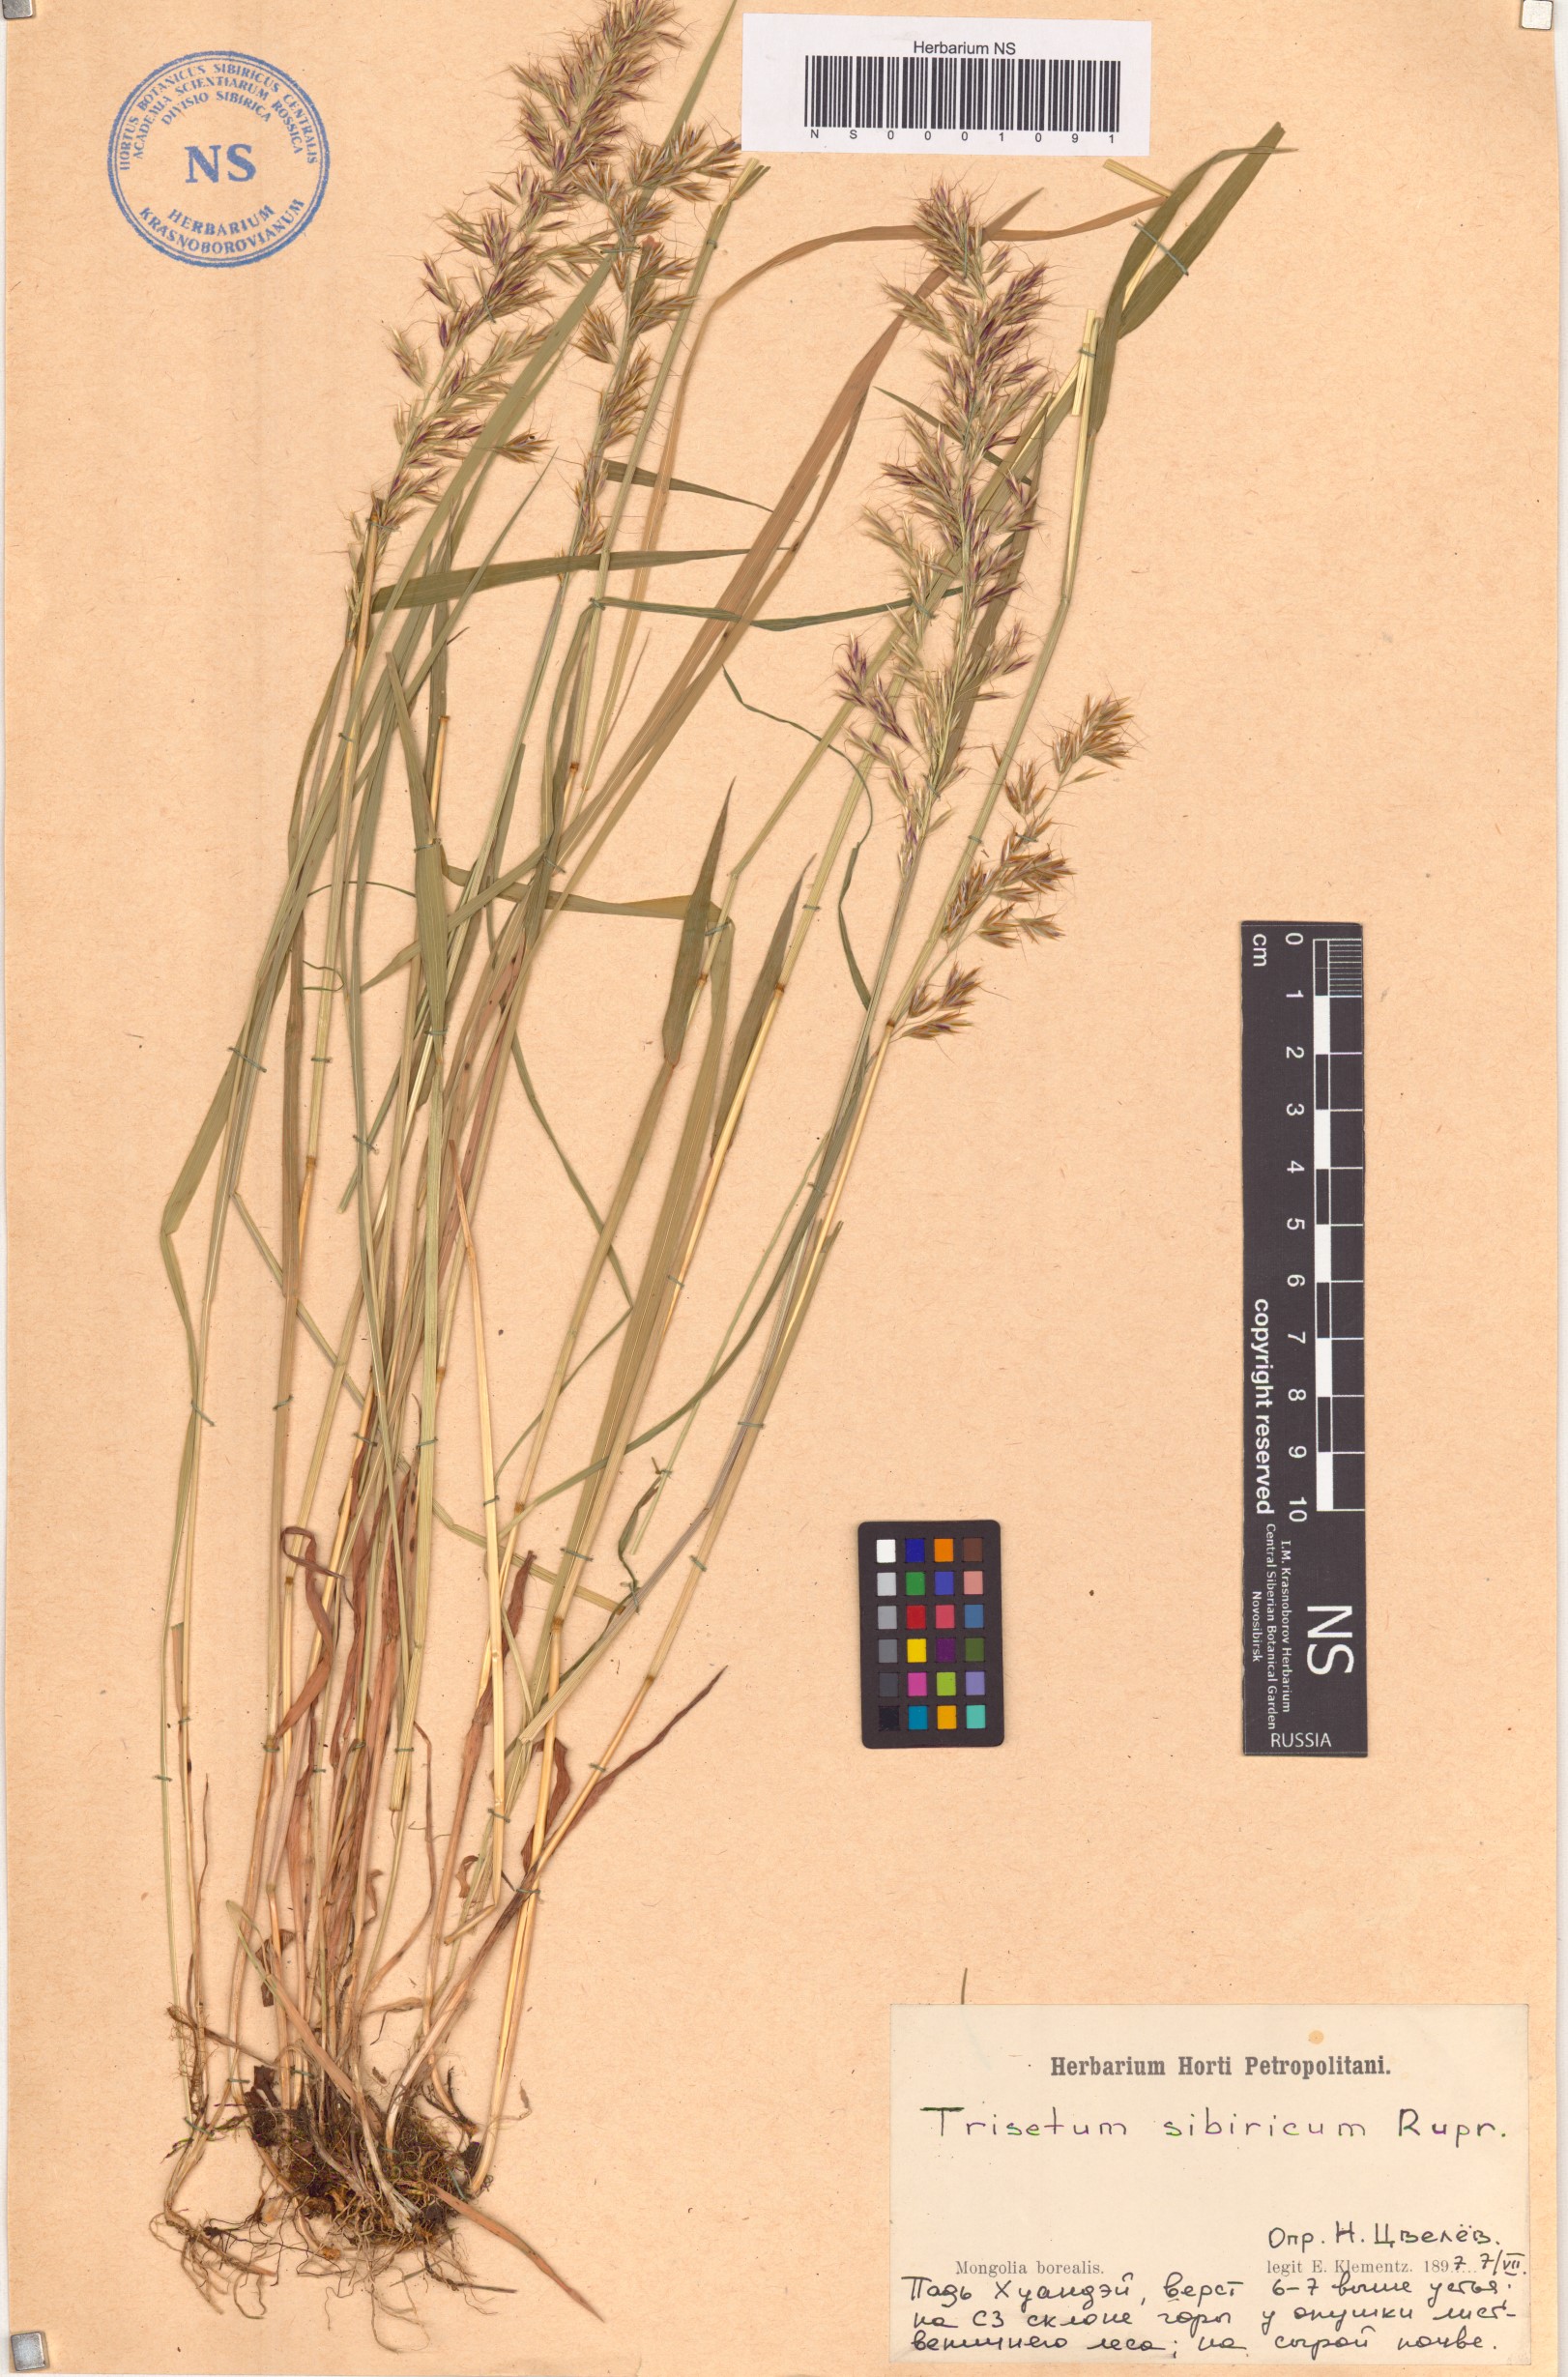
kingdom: Plantae
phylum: Tracheophyta
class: Liliopsida
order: Poales
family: Poaceae
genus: Sibirotrisetum
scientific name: Sibirotrisetum sibiricum
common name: Siberian false oat
